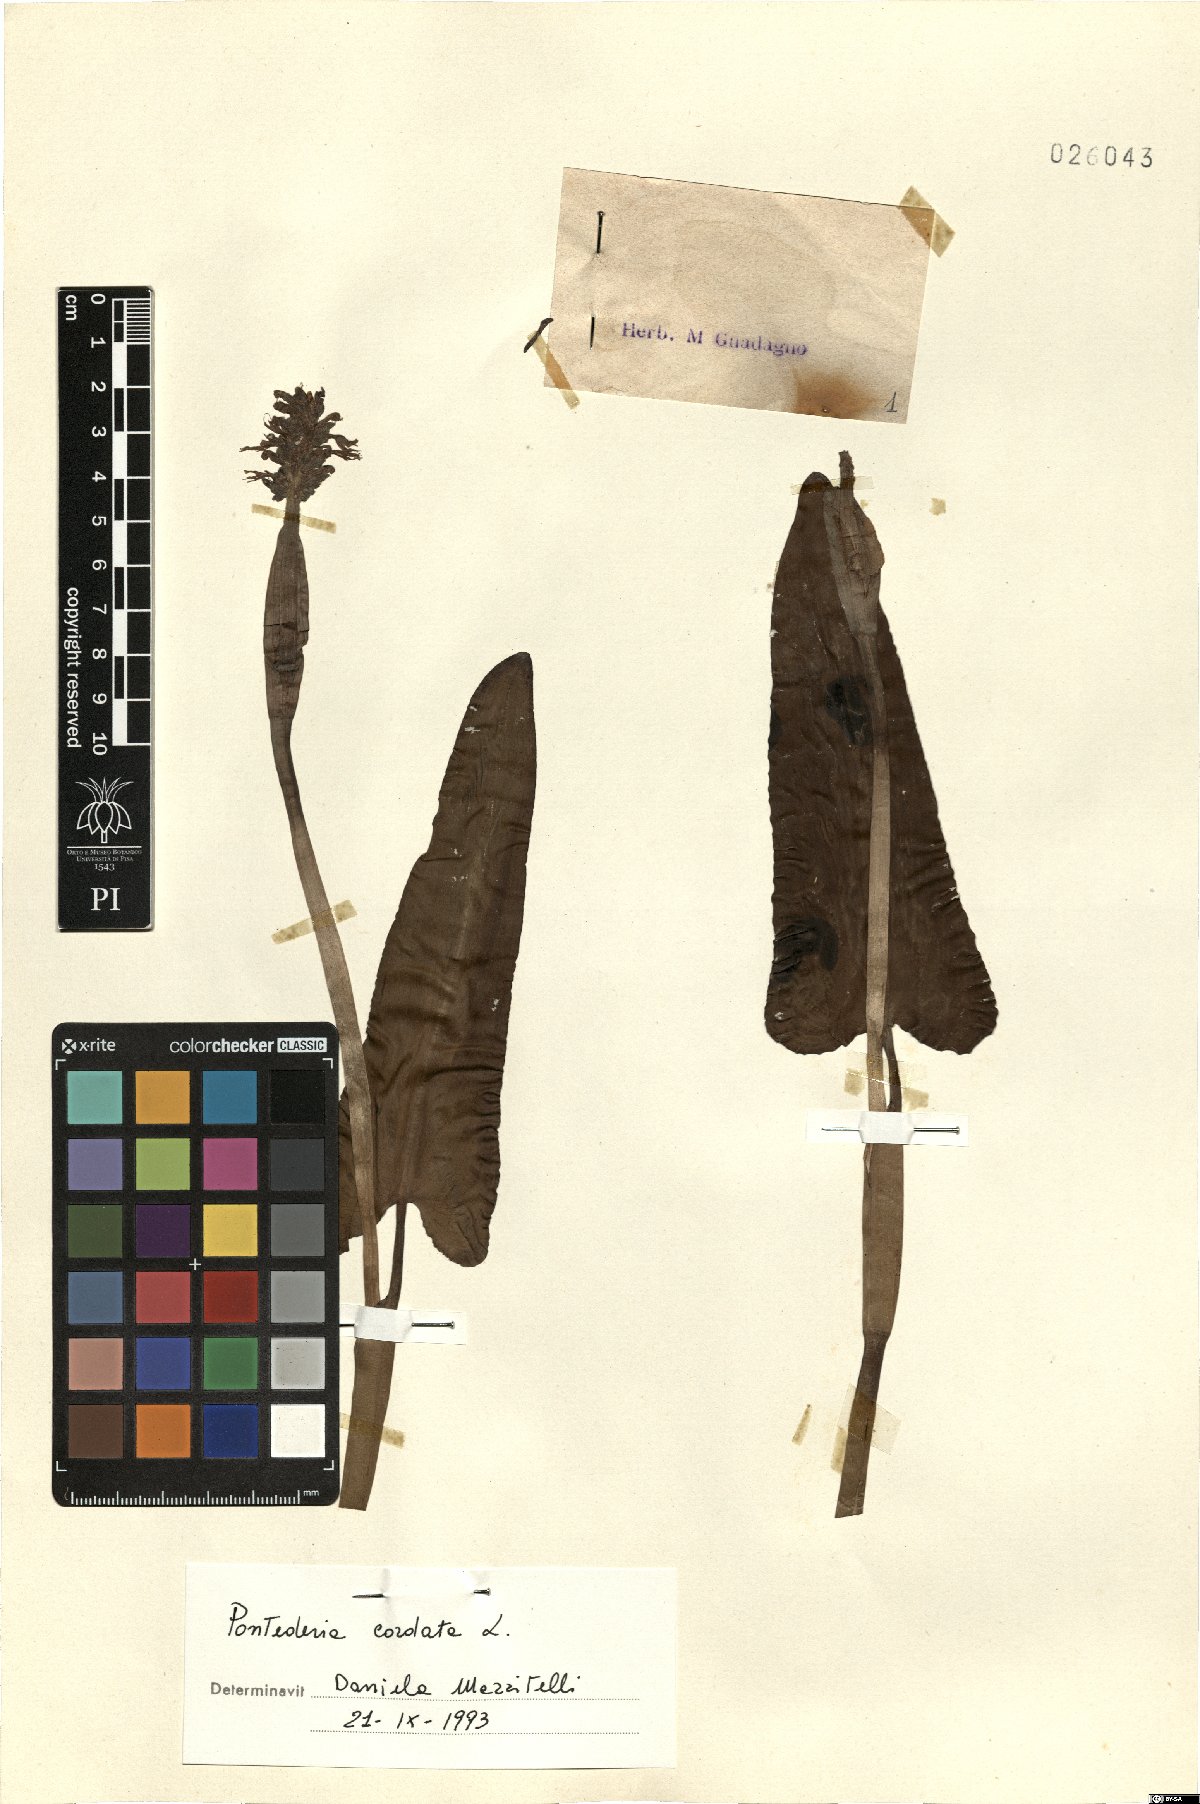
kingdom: Plantae
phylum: Tracheophyta
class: Liliopsida
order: Commelinales
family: Pontederiaceae
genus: Pontederia
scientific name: Pontederia cordata
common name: Pickerelweed
